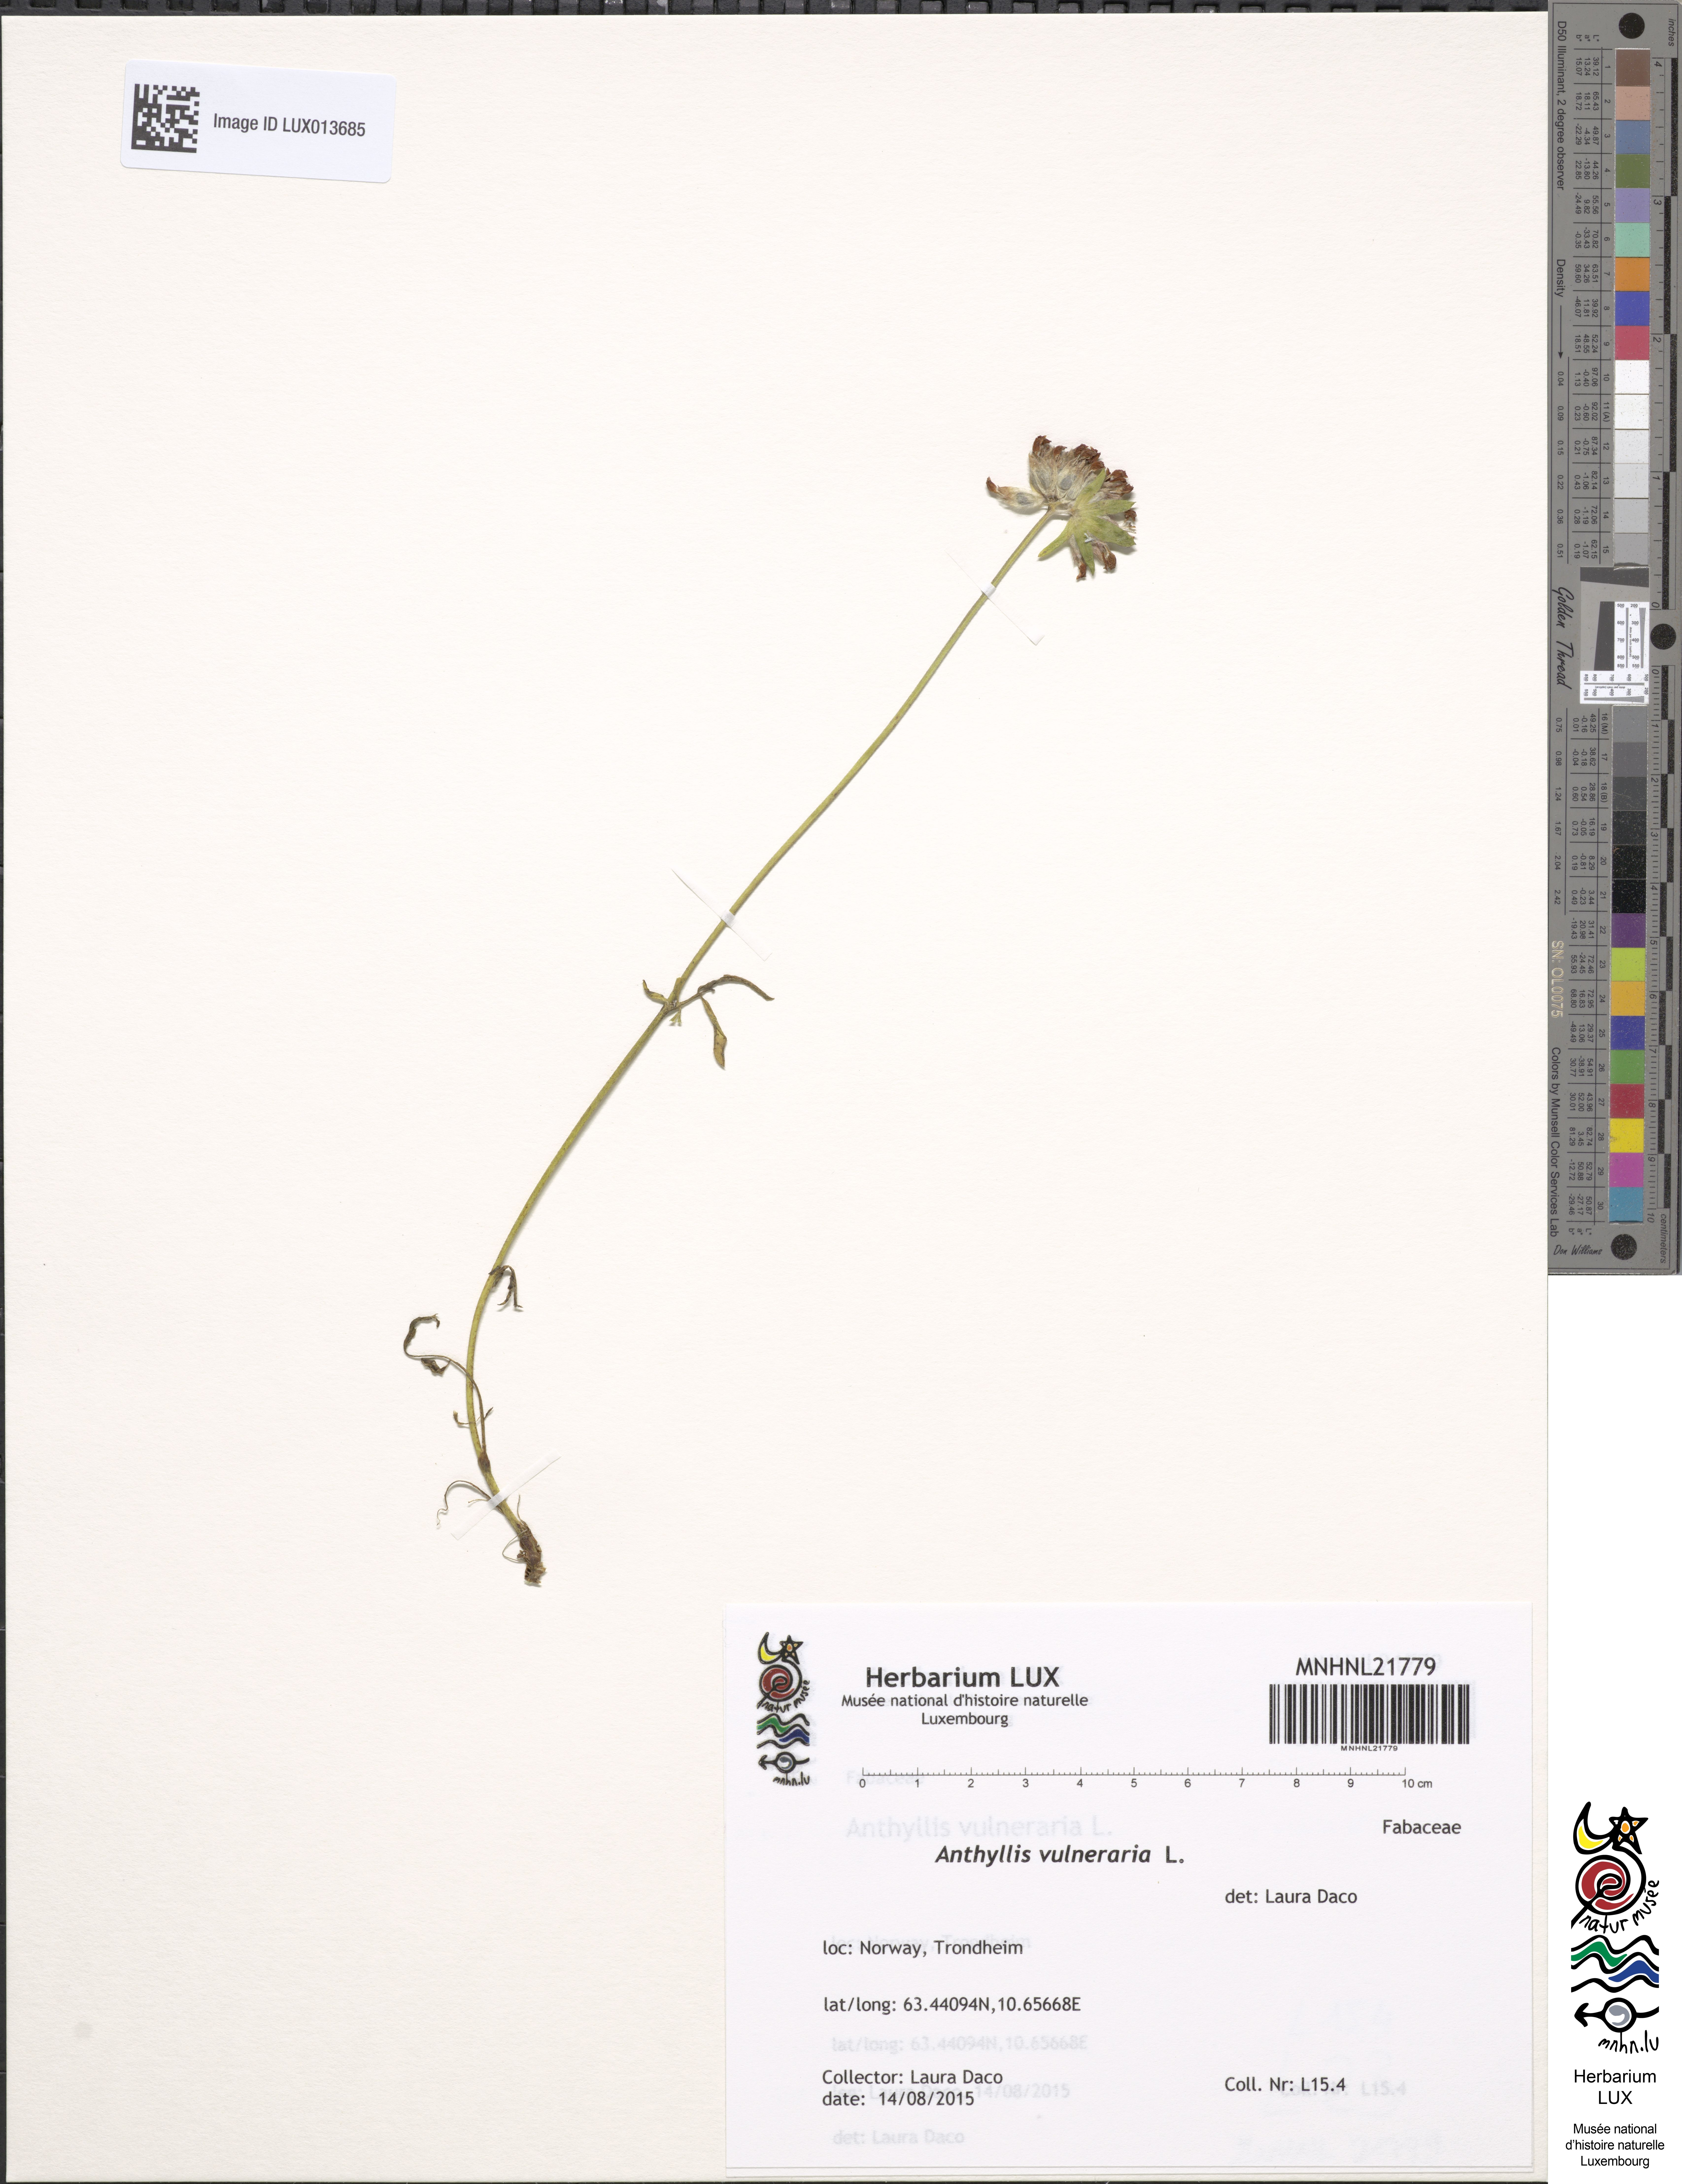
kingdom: Plantae
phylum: Tracheophyta
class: Magnoliopsida
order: Fabales
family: Fabaceae
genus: Anthyllis
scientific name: Anthyllis vulneraria
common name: Kidney vetch
